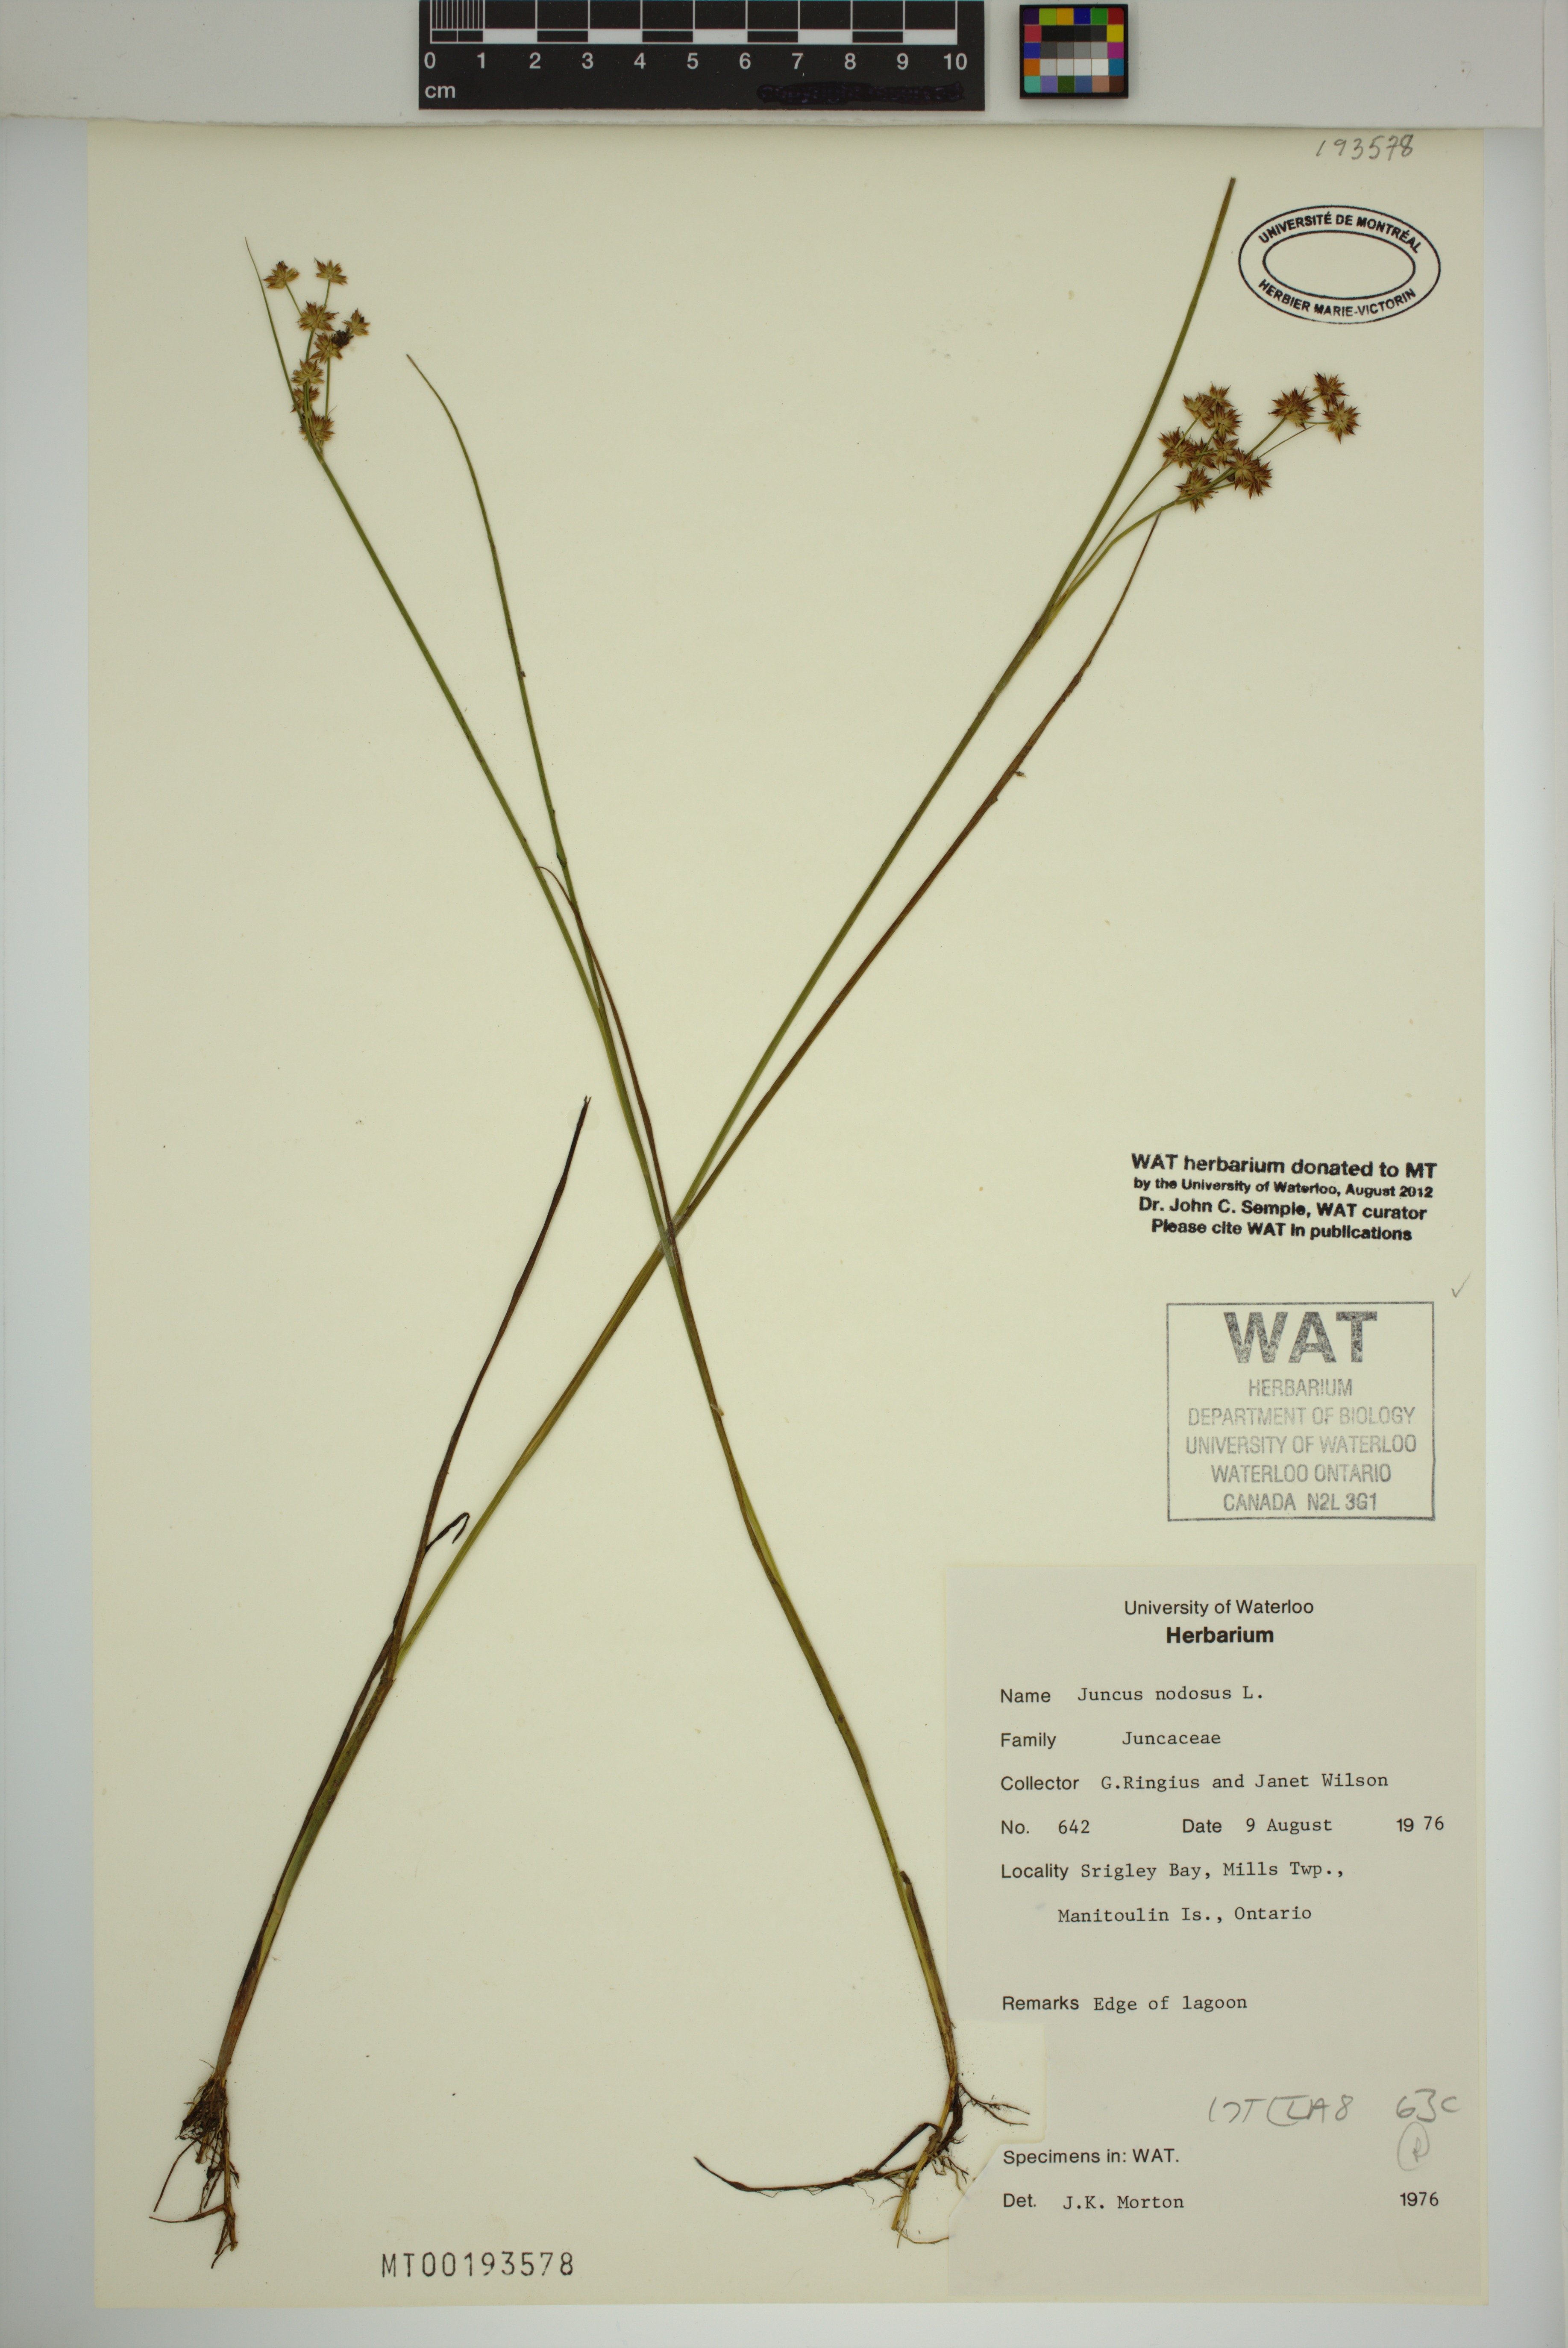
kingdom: Plantae
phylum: Tracheophyta
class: Liliopsida
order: Poales
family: Juncaceae
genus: Juncus
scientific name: Juncus nodosus
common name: Knotted rush
